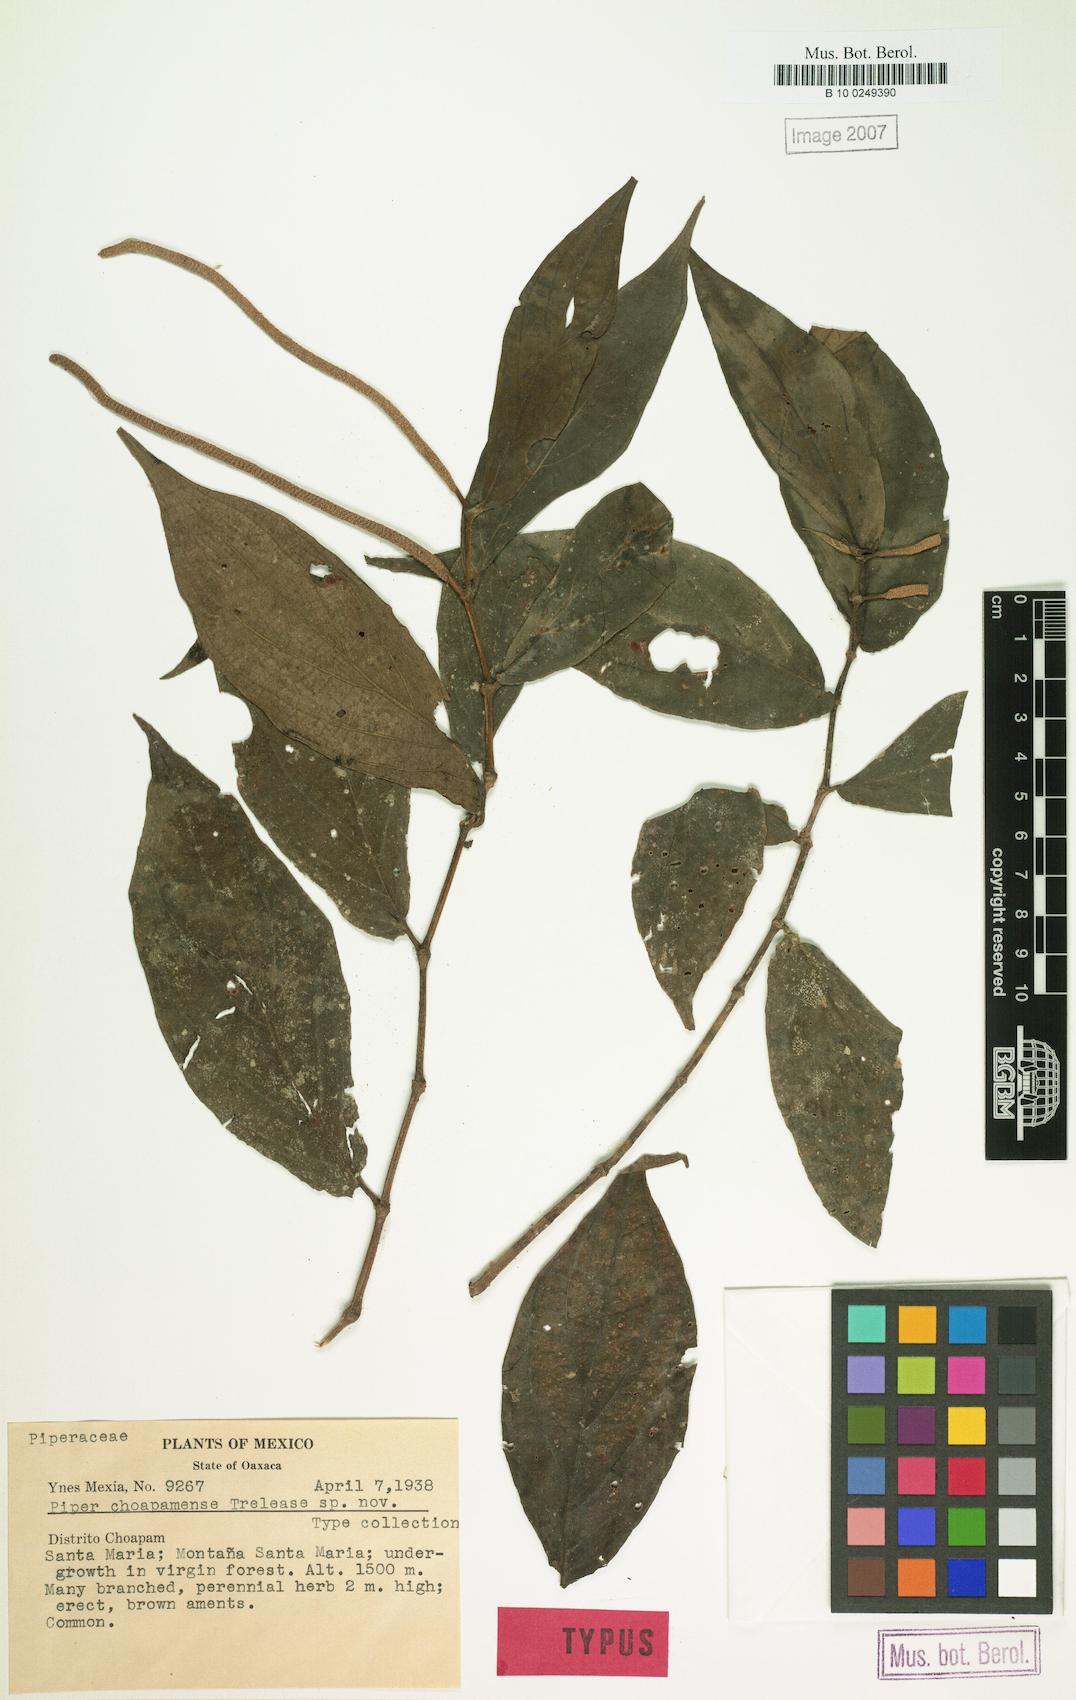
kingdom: Plantae
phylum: Tracheophyta
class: Magnoliopsida
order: Piperales
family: Piperaceae
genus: Piper
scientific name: Piper choapamense
